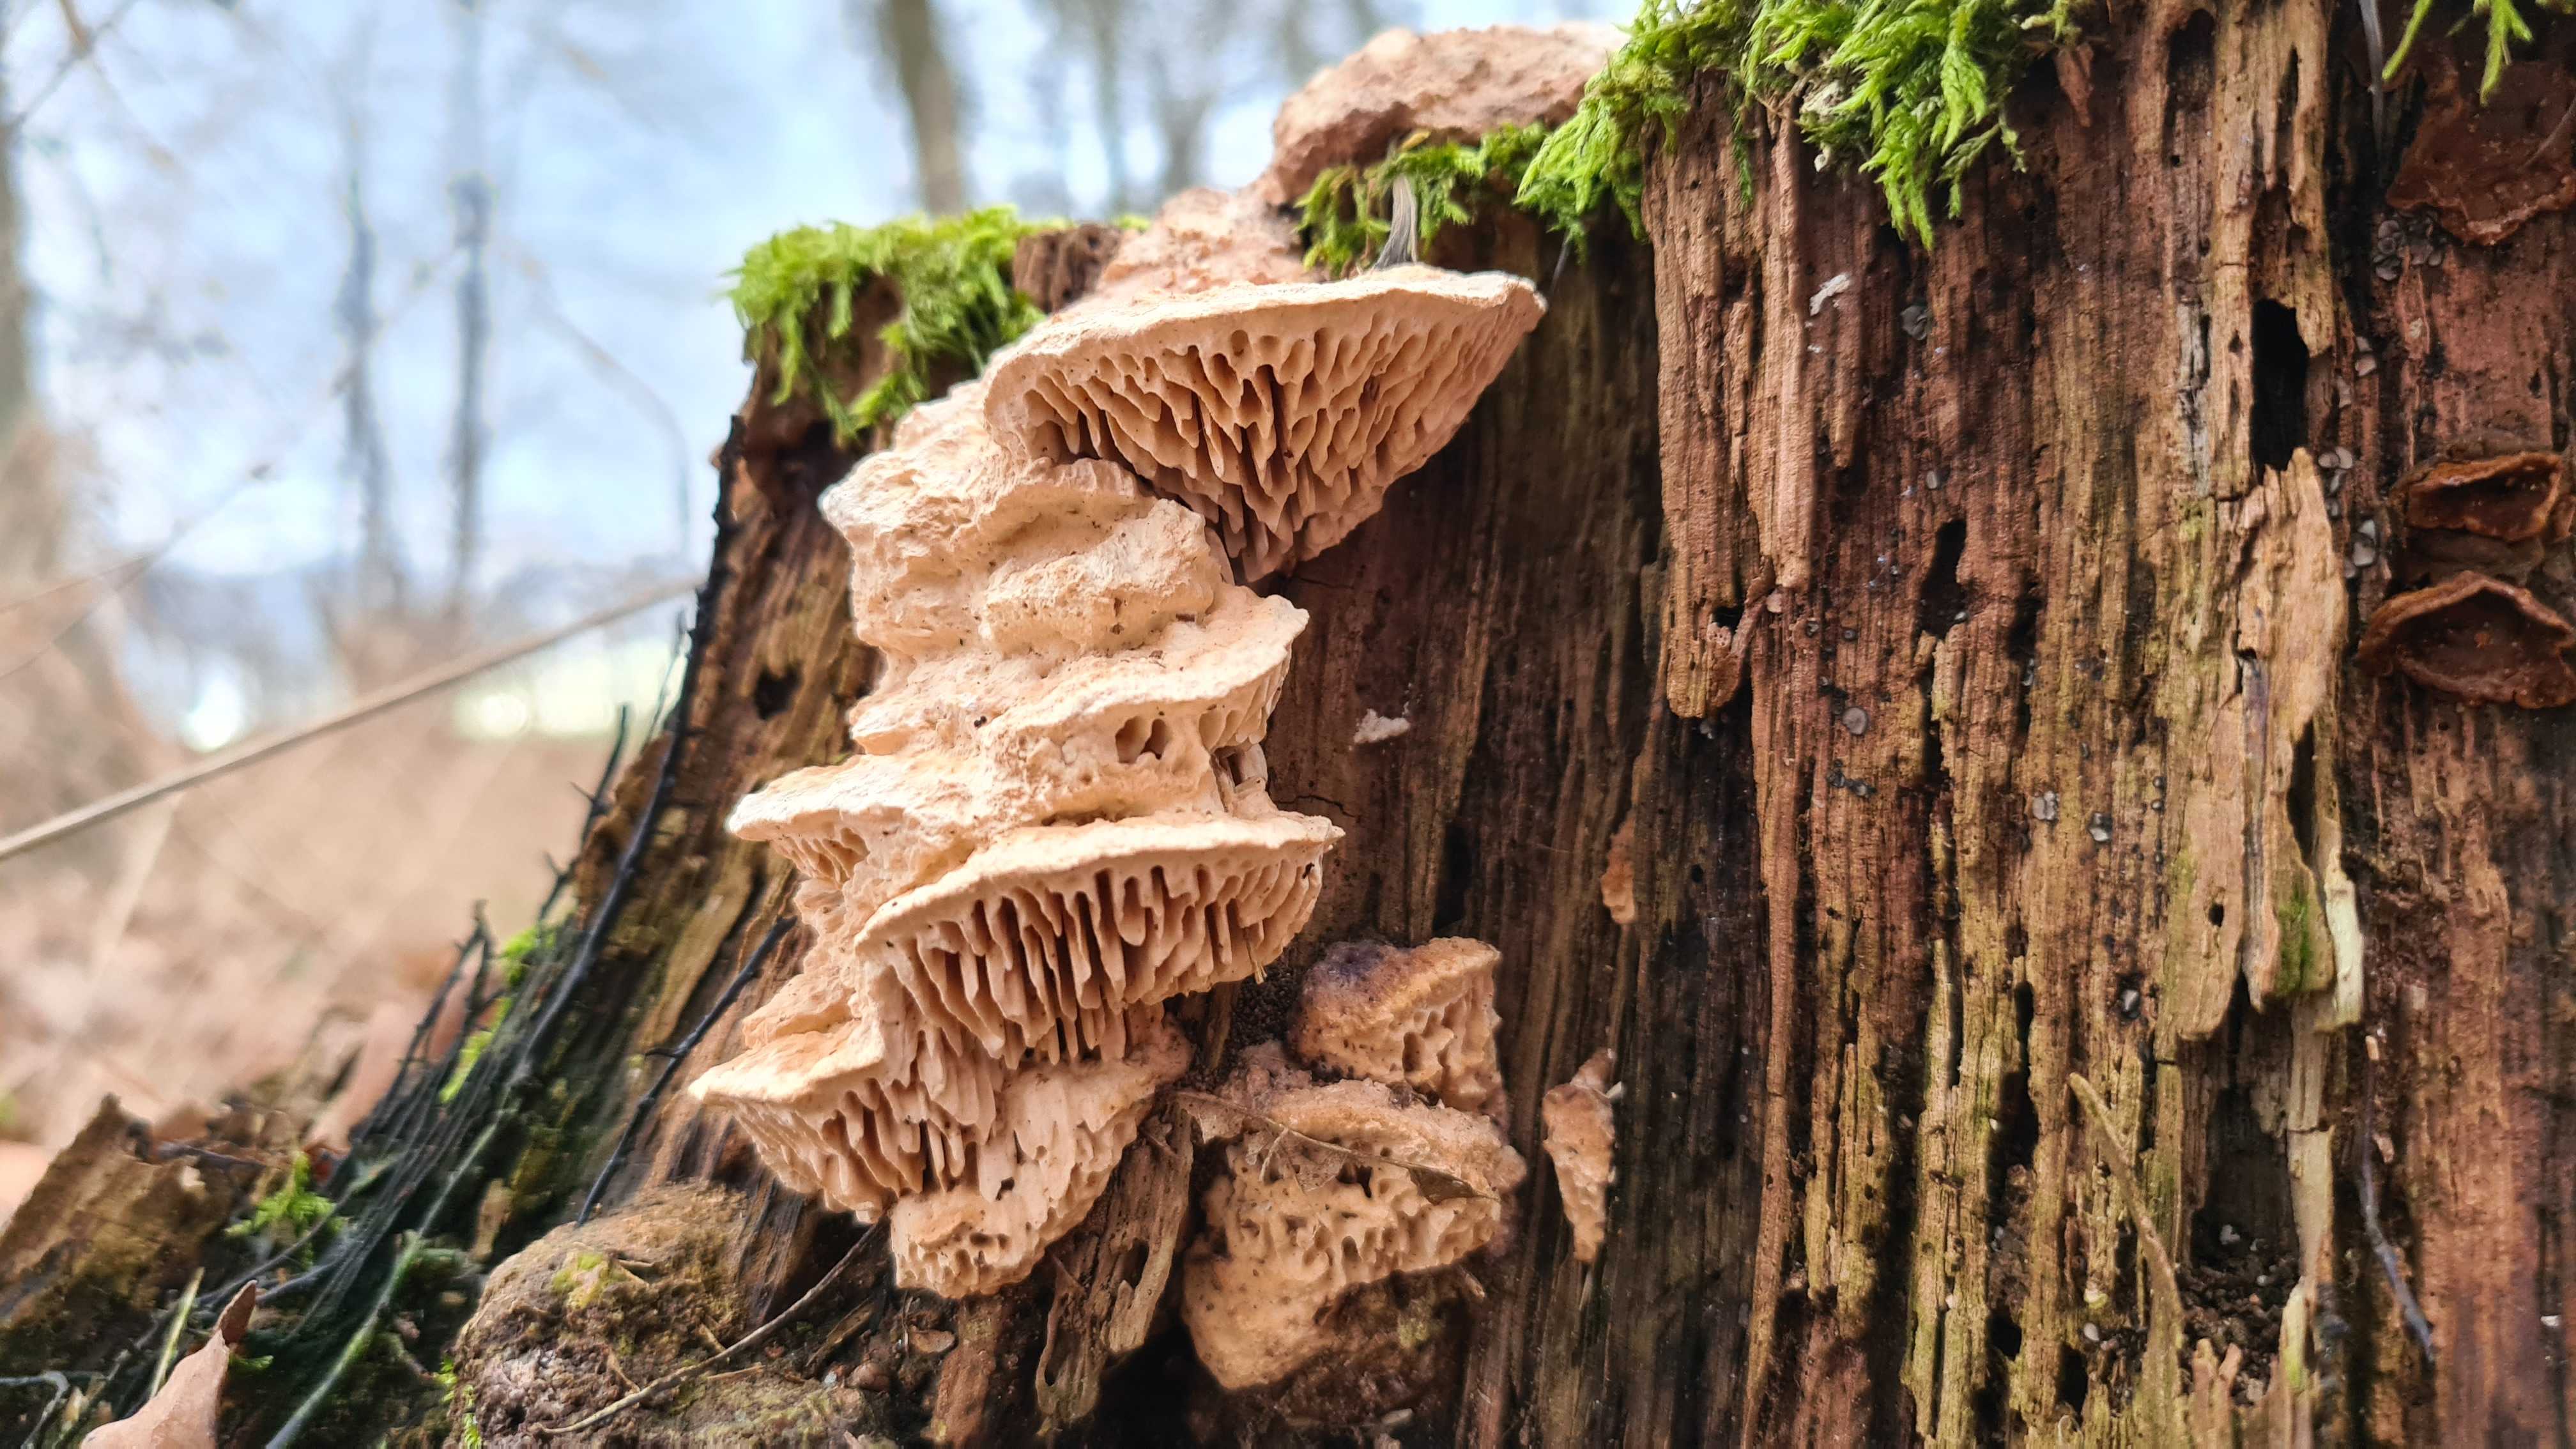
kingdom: Fungi
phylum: Basidiomycota
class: Agaricomycetes
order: Polyporales
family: Fomitopsidaceae
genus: Daedalea
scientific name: Daedalea quercina
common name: ege-labyrintsvamp
